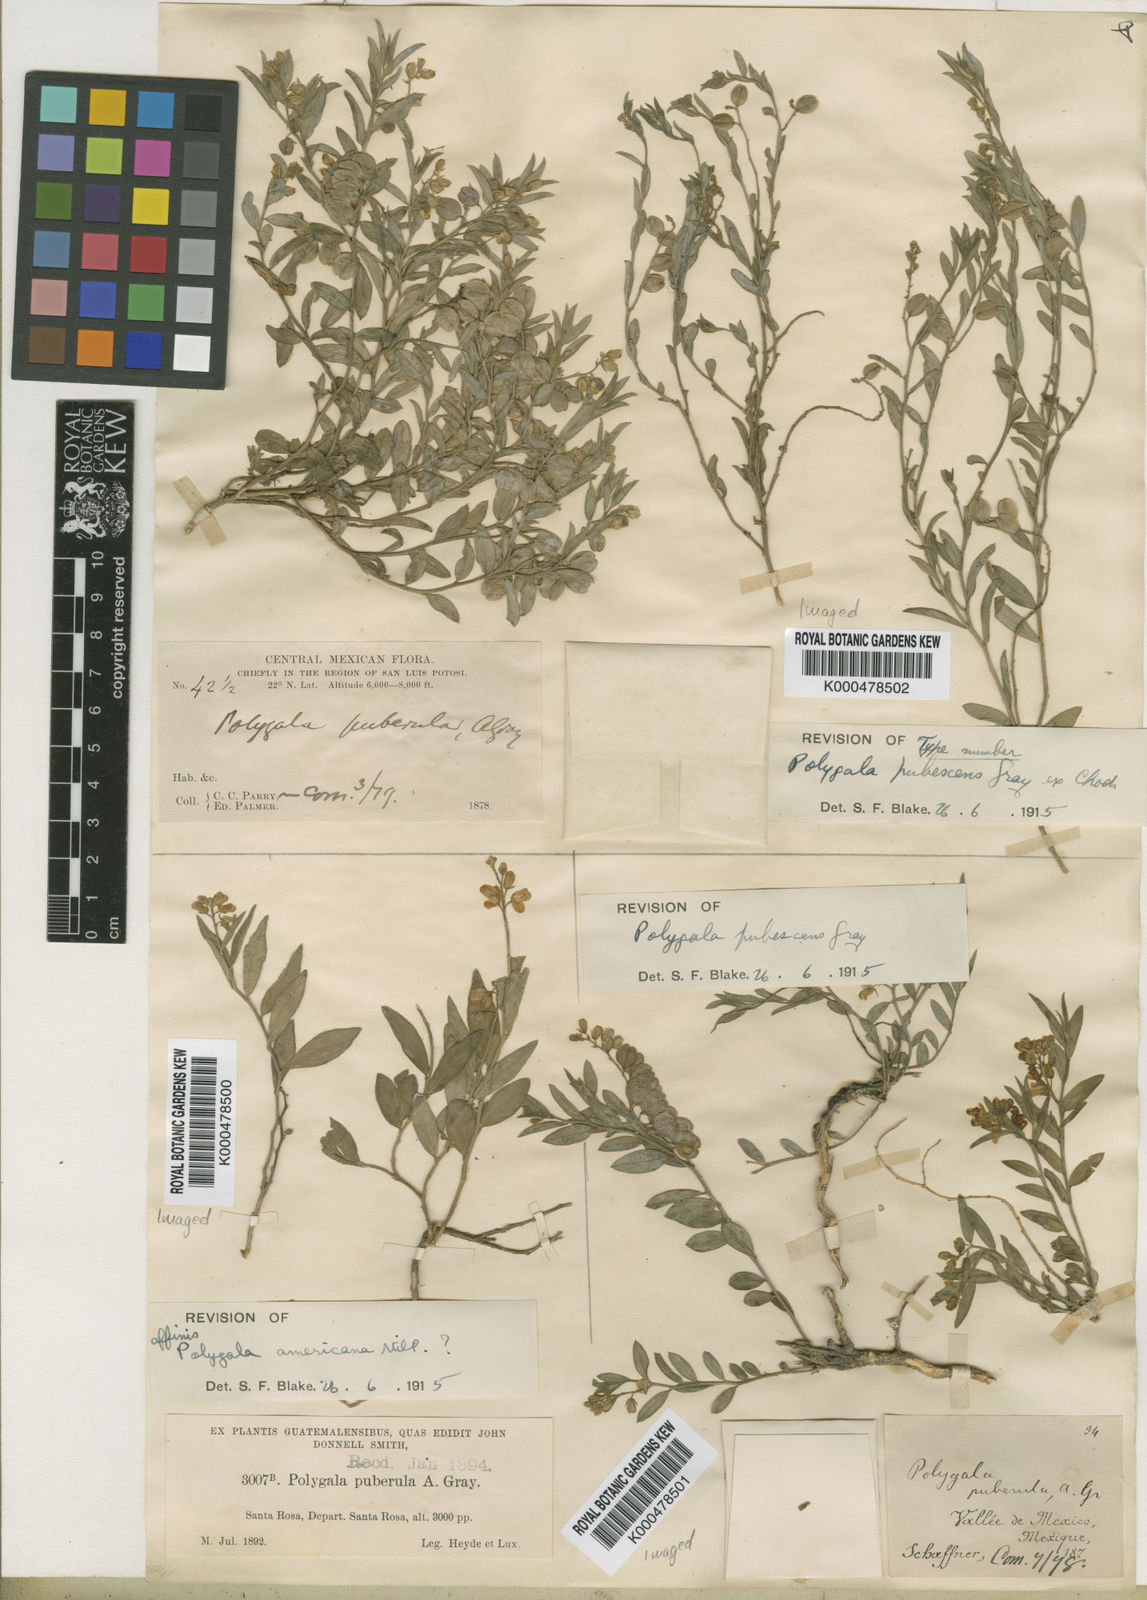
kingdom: Plantae
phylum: Tracheophyta
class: Magnoliopsida
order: Fabales
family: Polygalaceae
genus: Polygala
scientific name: Polygala compacta
